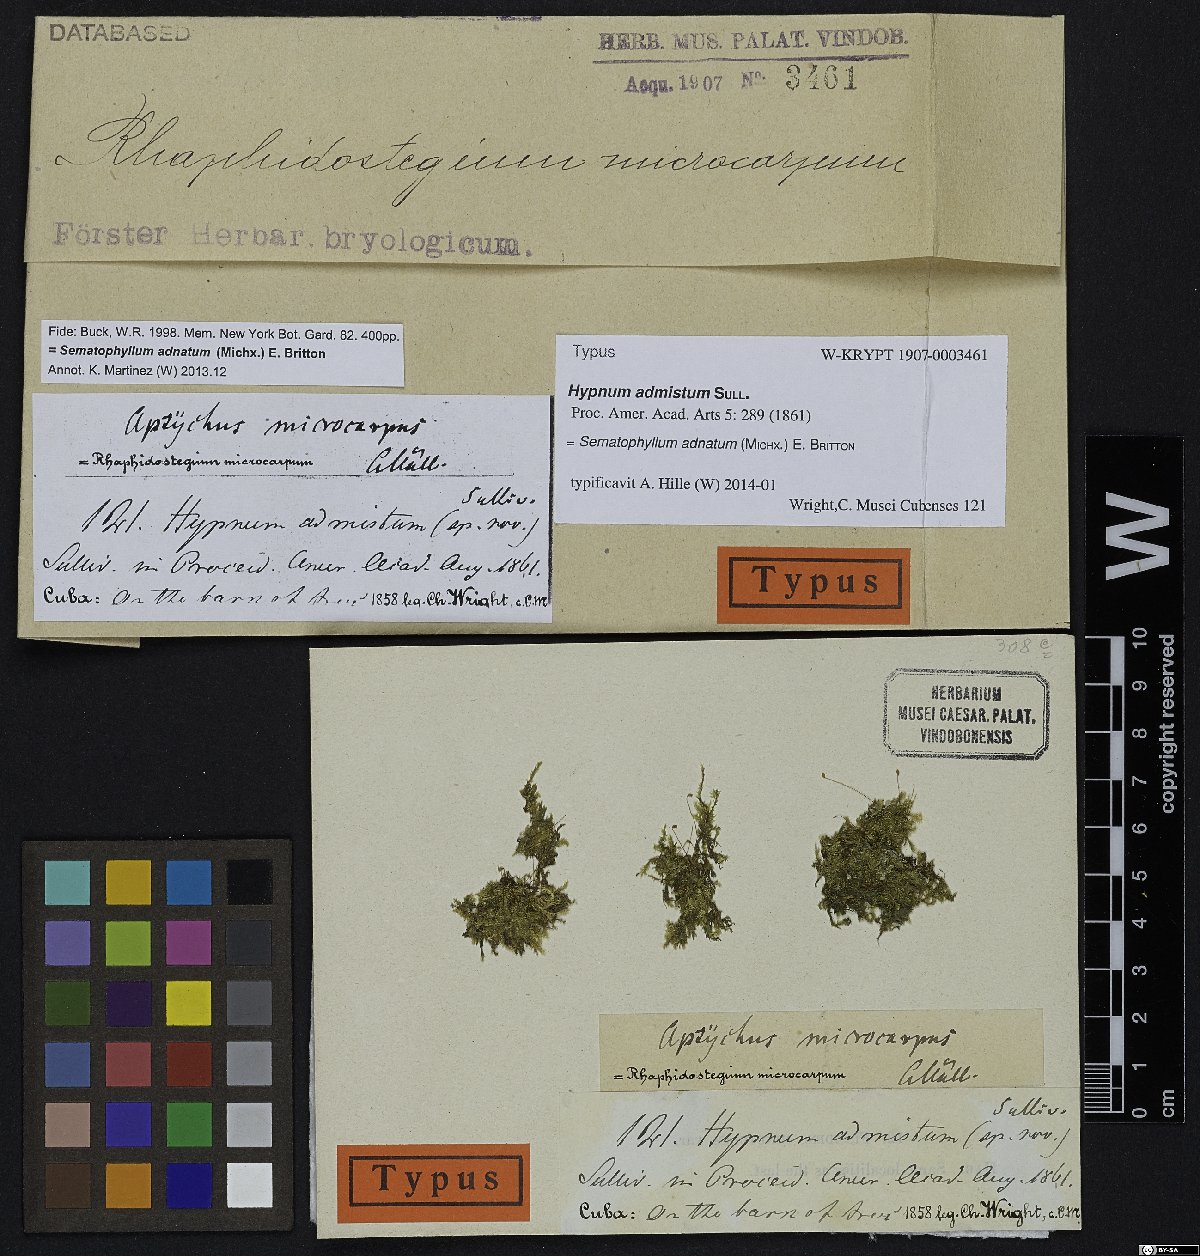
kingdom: Plantae
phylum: Bryophyta
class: Bryopsida
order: Hypnales
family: Sematophyllaceae
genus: Sematophyllum
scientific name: Sematophyllum adnatum
